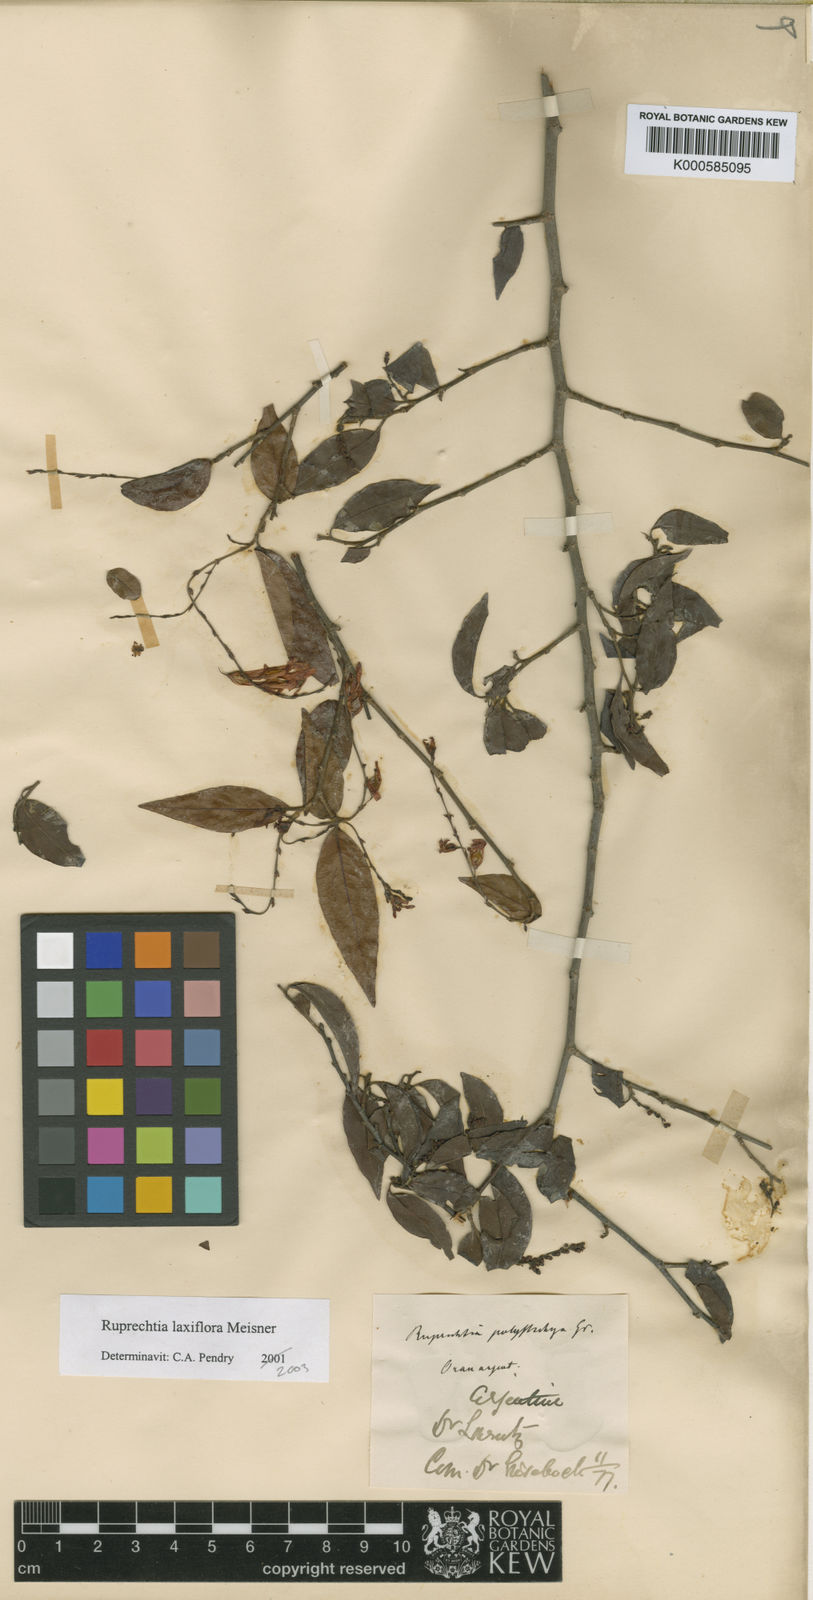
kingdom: Plantae
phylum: Tracheophyta
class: Magnoliopsida
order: Caryophyllales
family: Polygonaceae
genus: Ruprechtia
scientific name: Ruprechtia laxiflora
